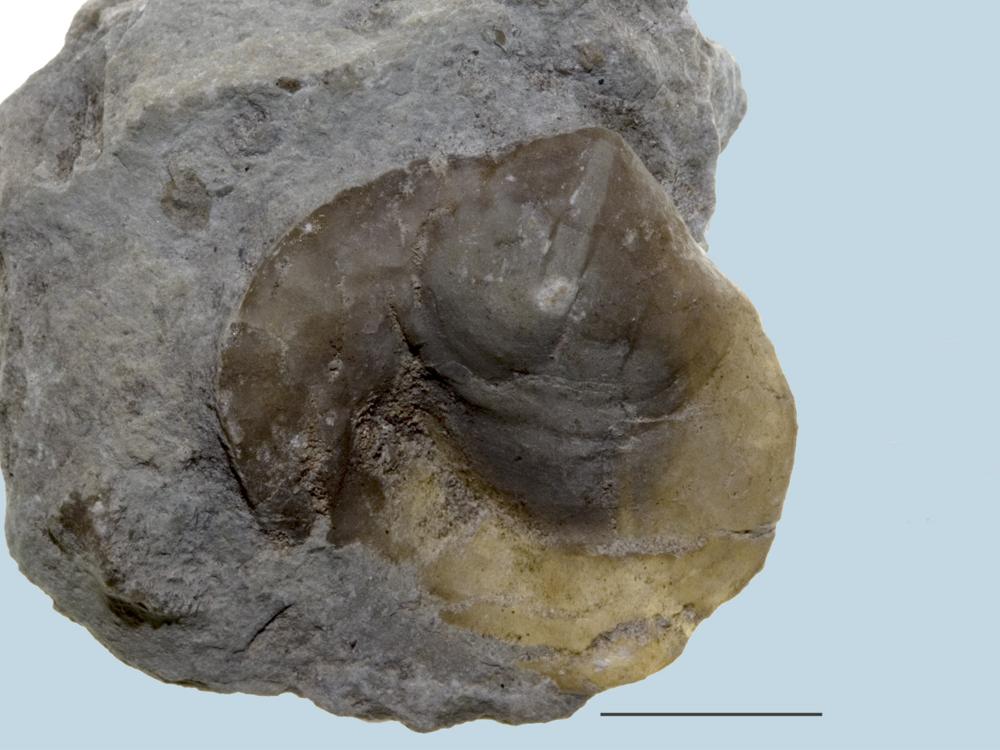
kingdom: Animalia
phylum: Brachiopoda
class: Rhynchonellata
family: Porambonitidae
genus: Porambonites
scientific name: Porambonites
